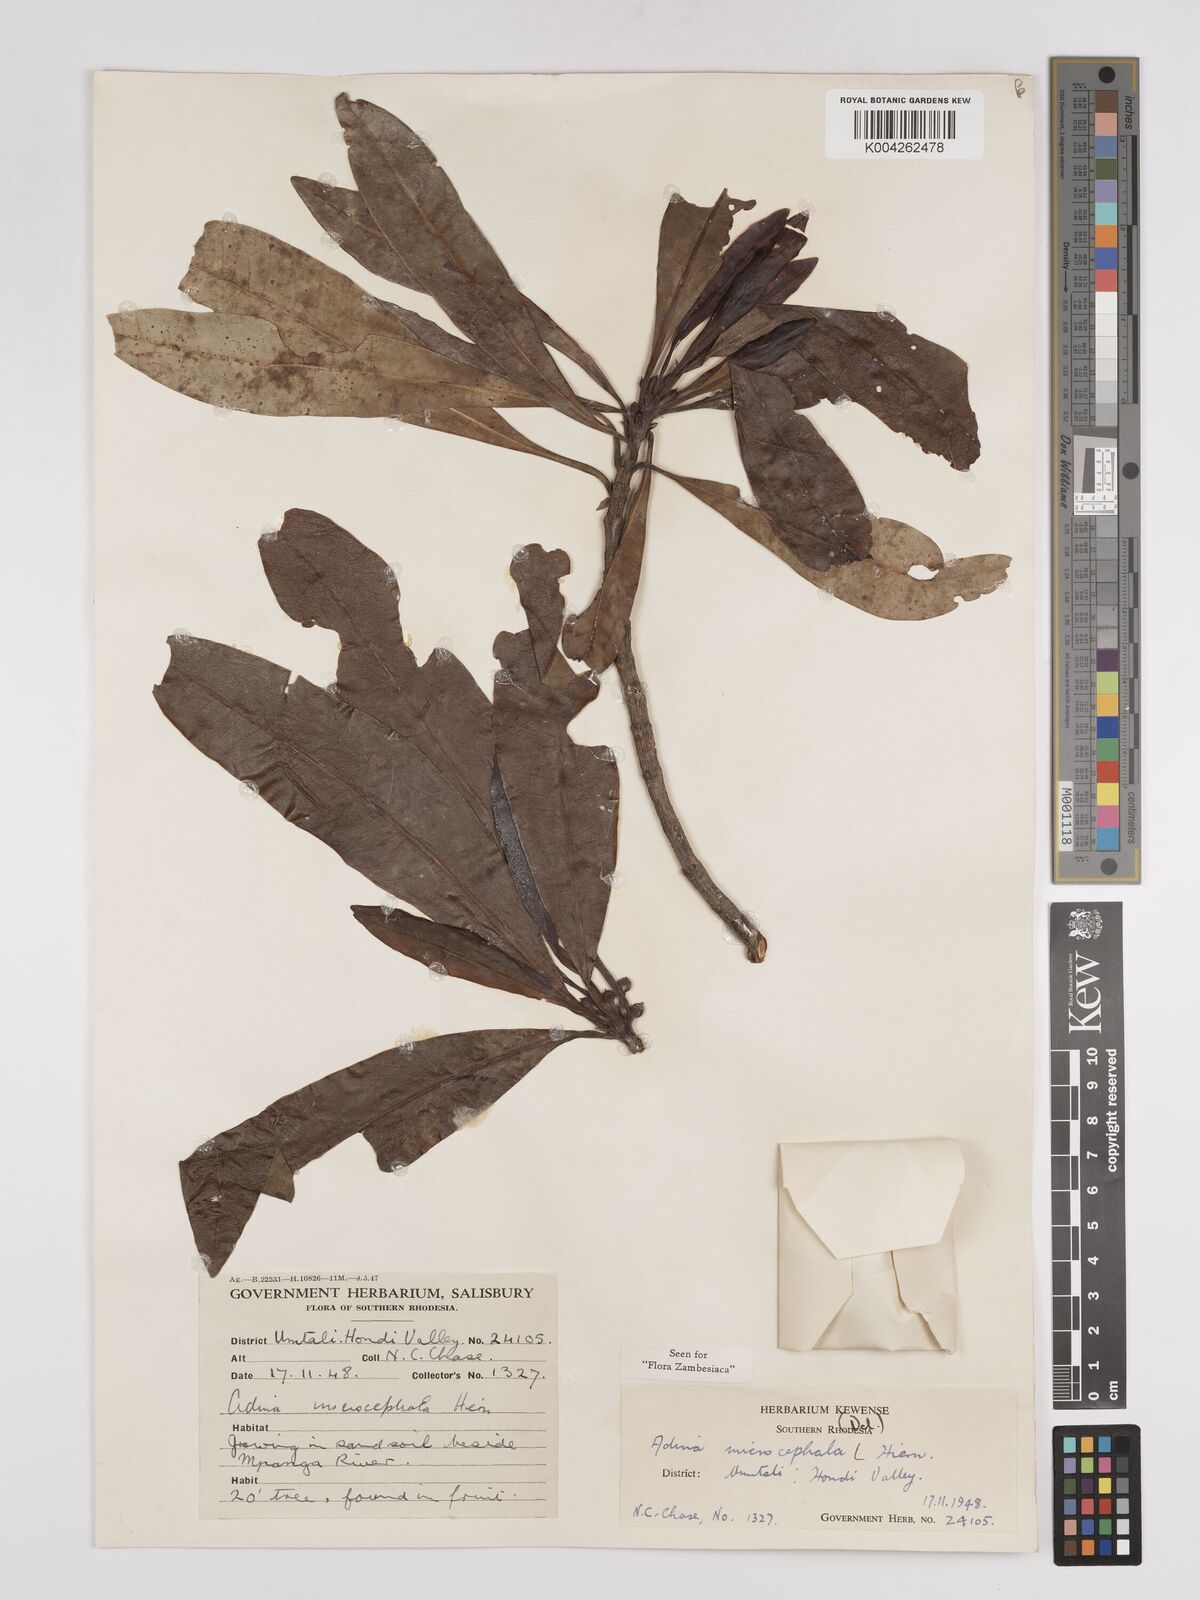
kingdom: Plantae
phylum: Tracheophyta
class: Magnoliopsida
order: Gentianales
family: Rubiaceae
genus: Breonadia
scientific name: Breonadia salicina
